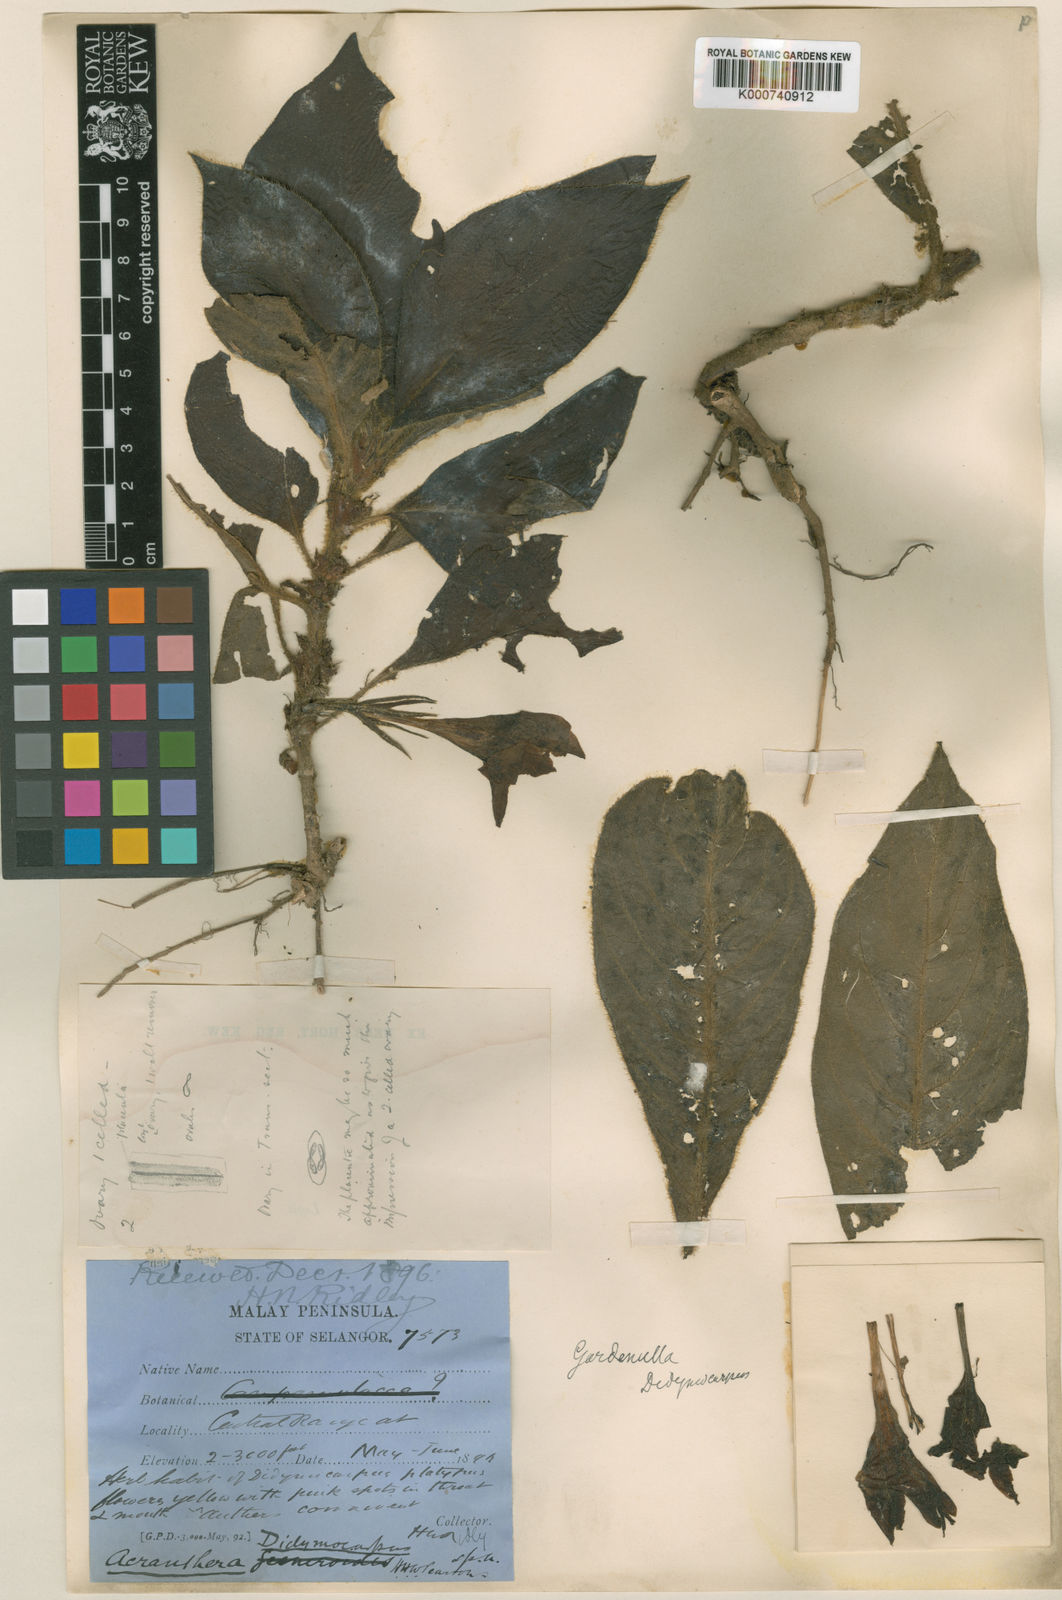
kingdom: Plantae
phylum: Tracheophyta
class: Magnoliopsida
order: Gentianales
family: Rubiaceae
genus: Acranthera
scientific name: Acranthera didymocarpa
